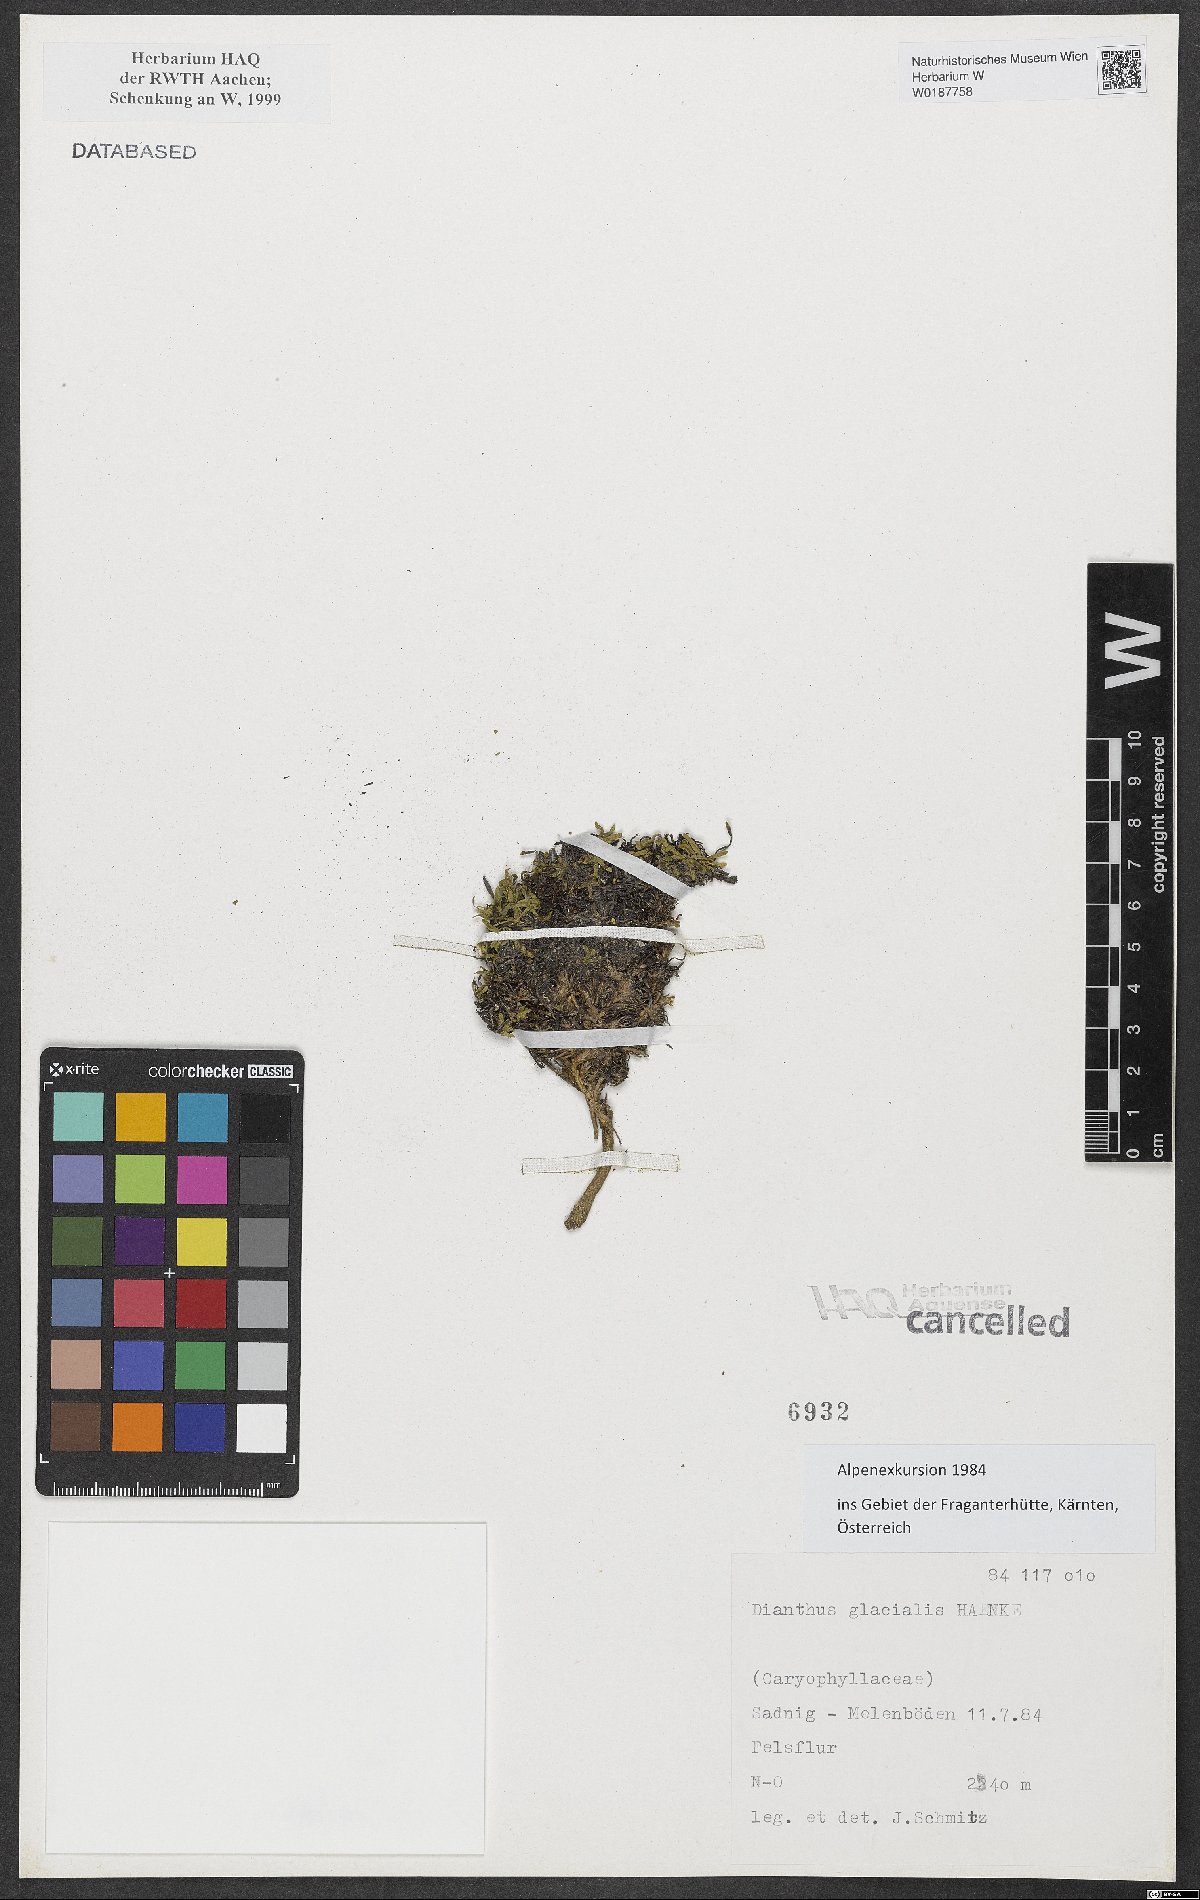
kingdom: Plantae
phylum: Tracheophyta
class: Magnoliopsida
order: Caryophyllales
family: Caryophyllaceae
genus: Dianthus
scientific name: Dianthus glacialis
